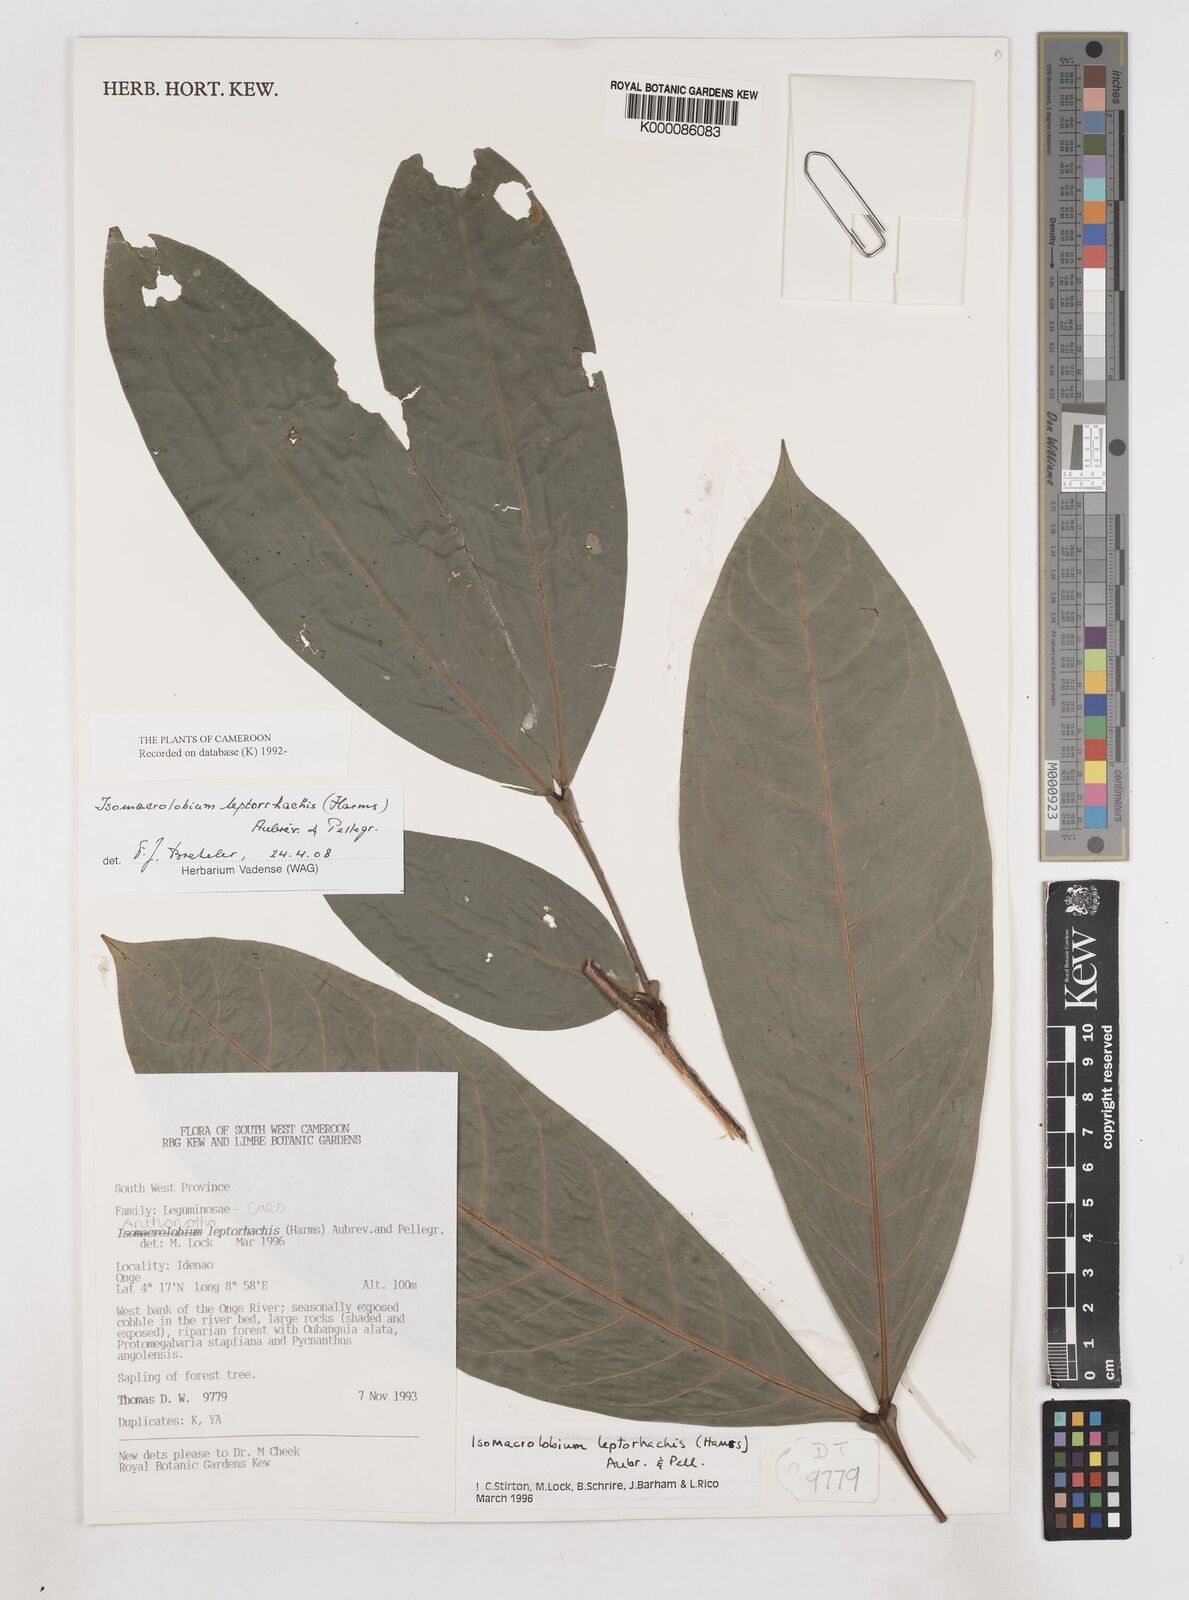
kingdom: Plantae
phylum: Tracheophyta
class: Magnoliopsida
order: Fabales
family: Fabaceae
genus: Englerodendron
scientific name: Englerodendron
